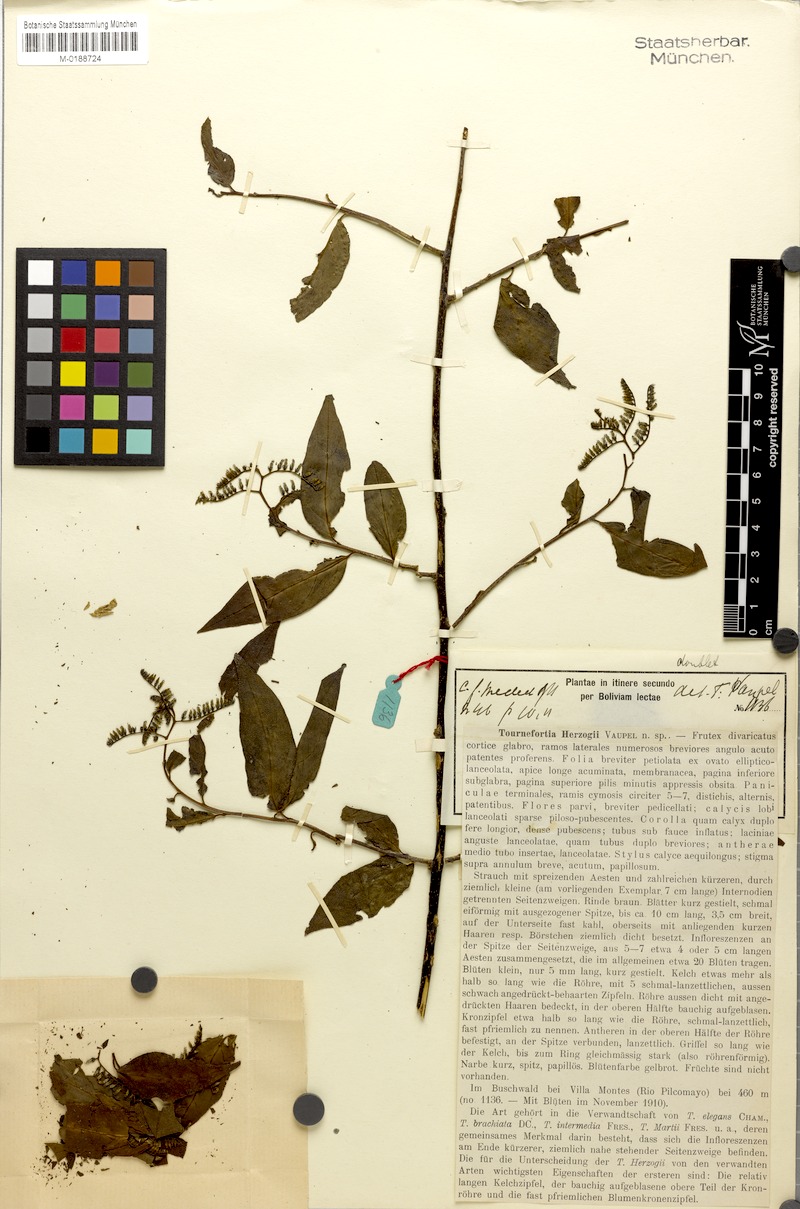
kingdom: Plantae
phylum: Tracheophyta
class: Magnoliopsida
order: Boraginales
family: Heliotropiaceae
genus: Myriopus
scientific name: Myriopus rubicundus
